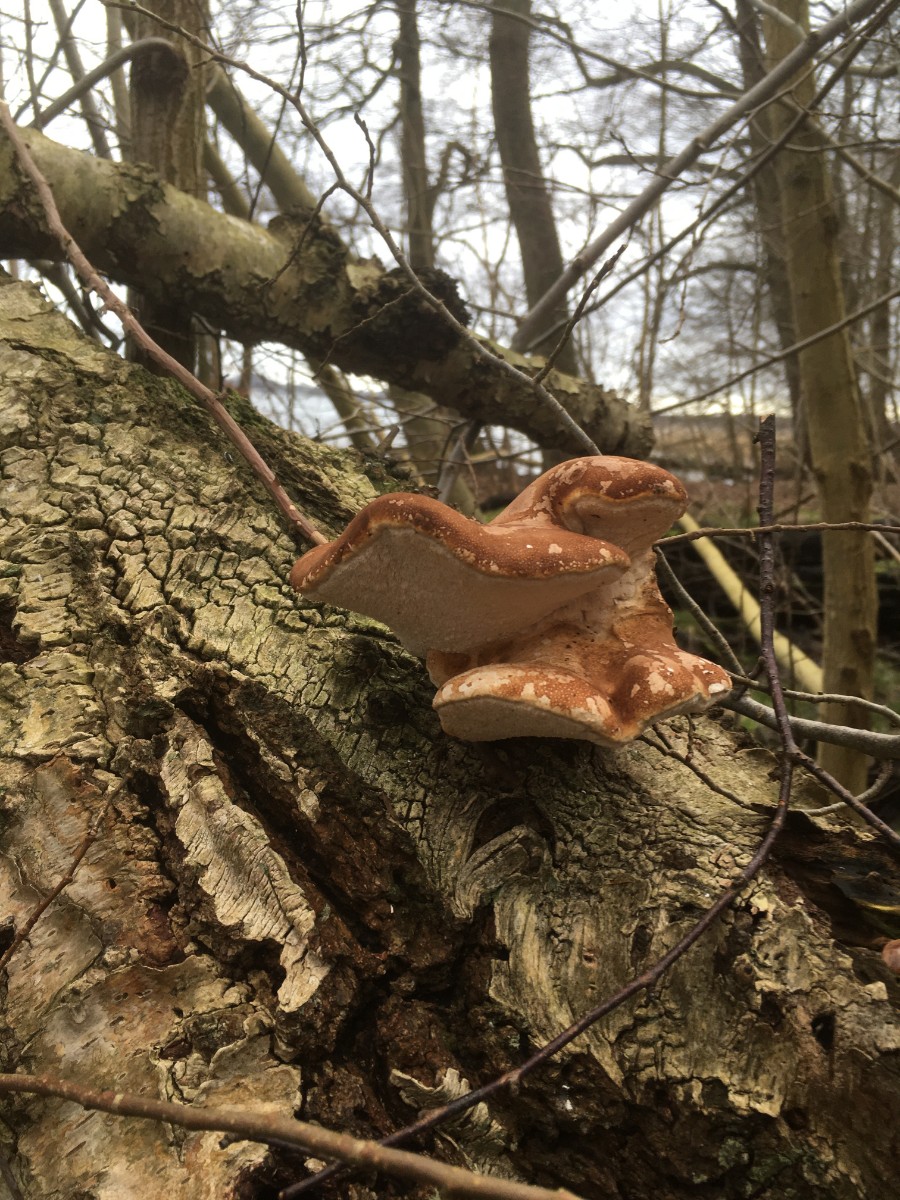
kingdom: Fungi
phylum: Basidiomycota
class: Agaricomycetes
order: Polyporales
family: Fomitopsidaceae
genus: Fomitopsis
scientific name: Fomitopsis betulina
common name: birkeporesvamp
